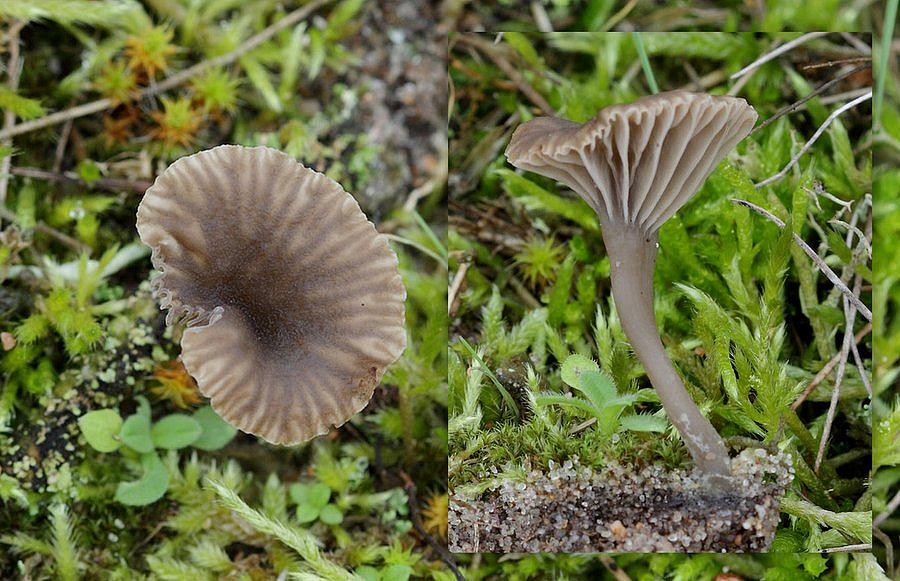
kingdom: Fungi
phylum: Basidiomycota
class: Agaricomycetes
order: Agaricales
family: Hygrophoraceae
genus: Arrhenia
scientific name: Arrhenia griseopallida
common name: bleggrå fontænehat
